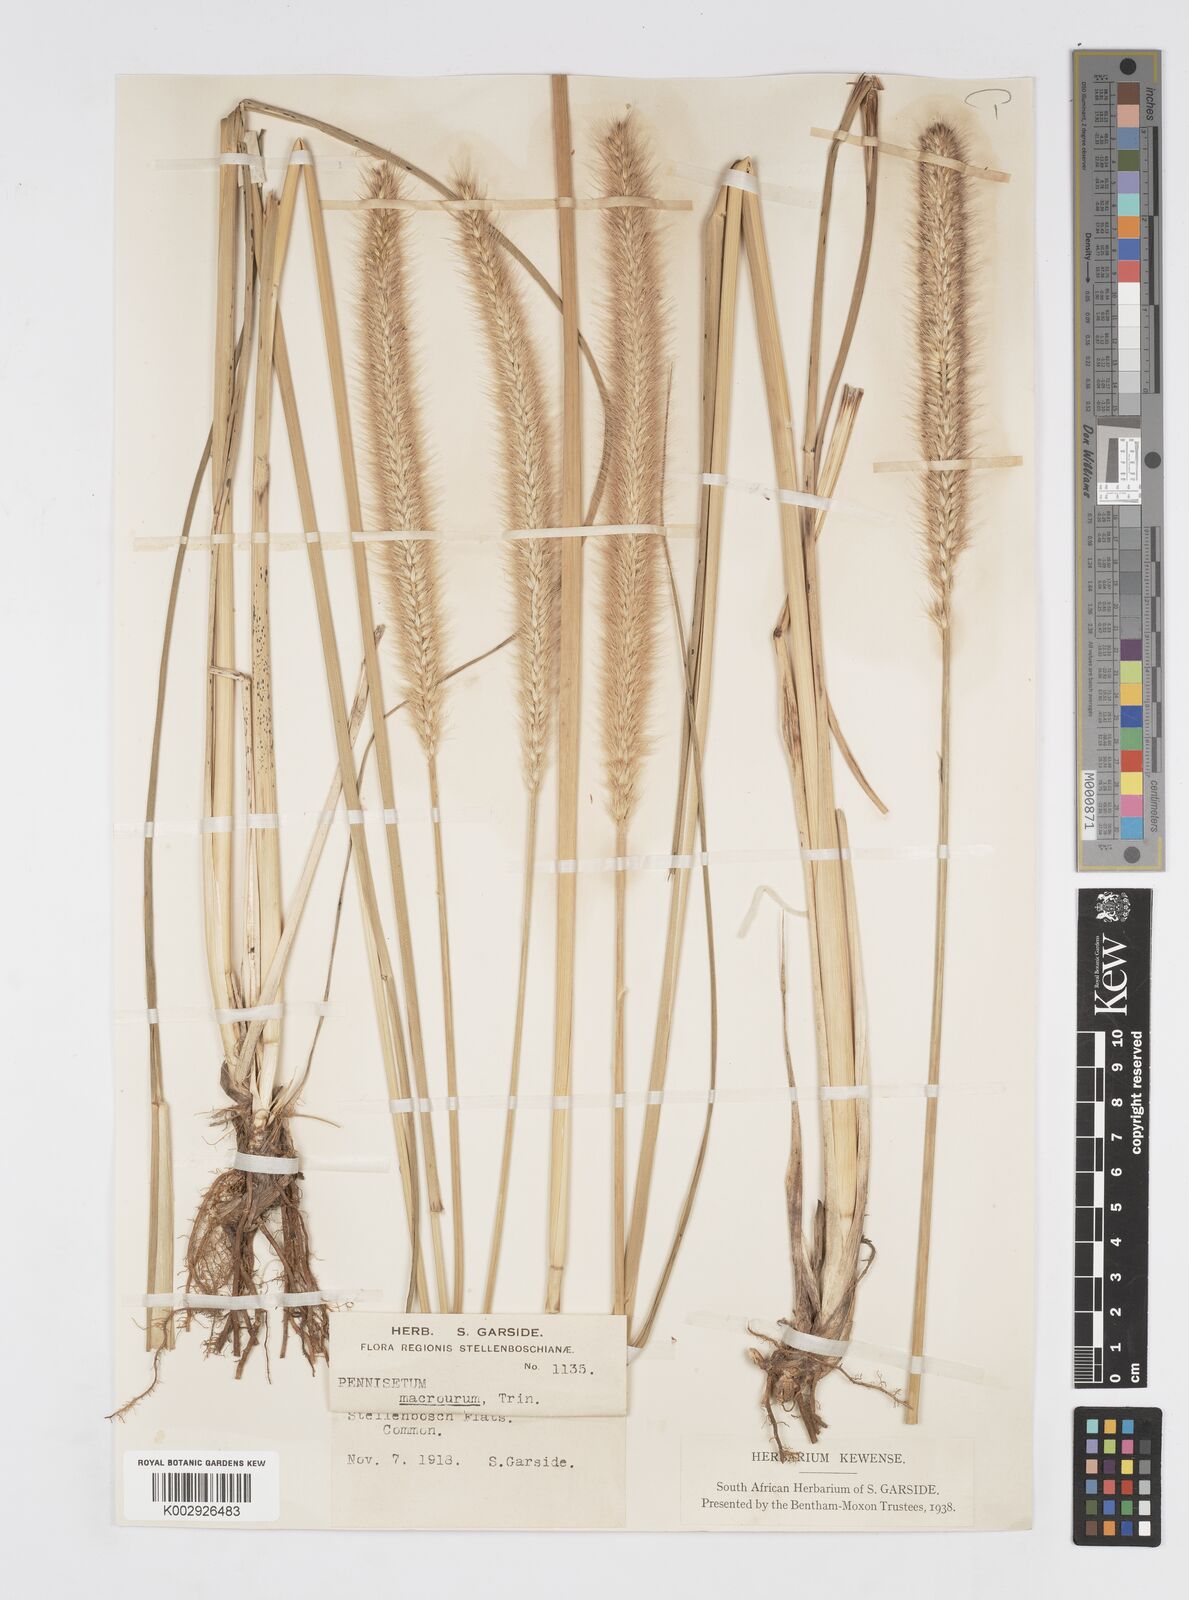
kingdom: Plantae
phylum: Tracheophyta
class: Liliopsida
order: Poales
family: Poaceae
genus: Cenchrus
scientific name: Cenchrus caudatus
